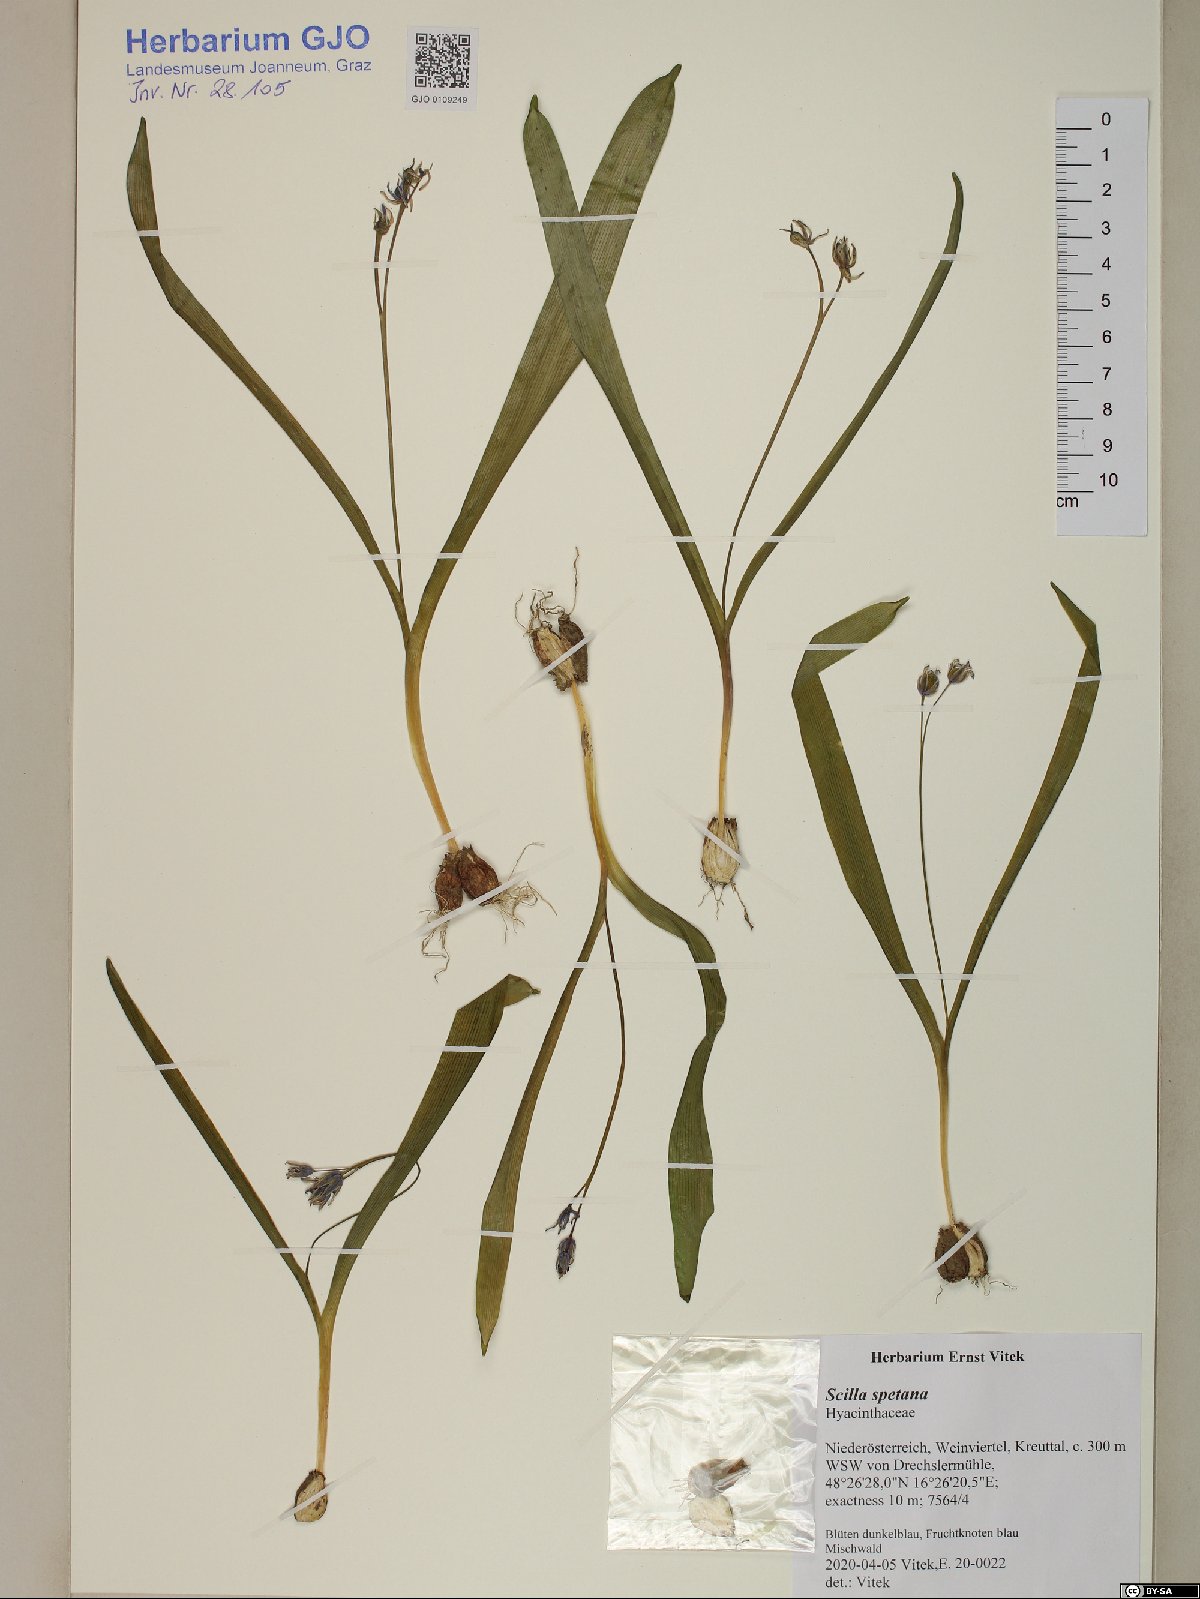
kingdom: Plantae
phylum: Tracheophyta
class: Liliopsida
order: Asparagales
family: Asparagaceae
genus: Scilla
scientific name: Scilla bifolia
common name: Alpine squill
